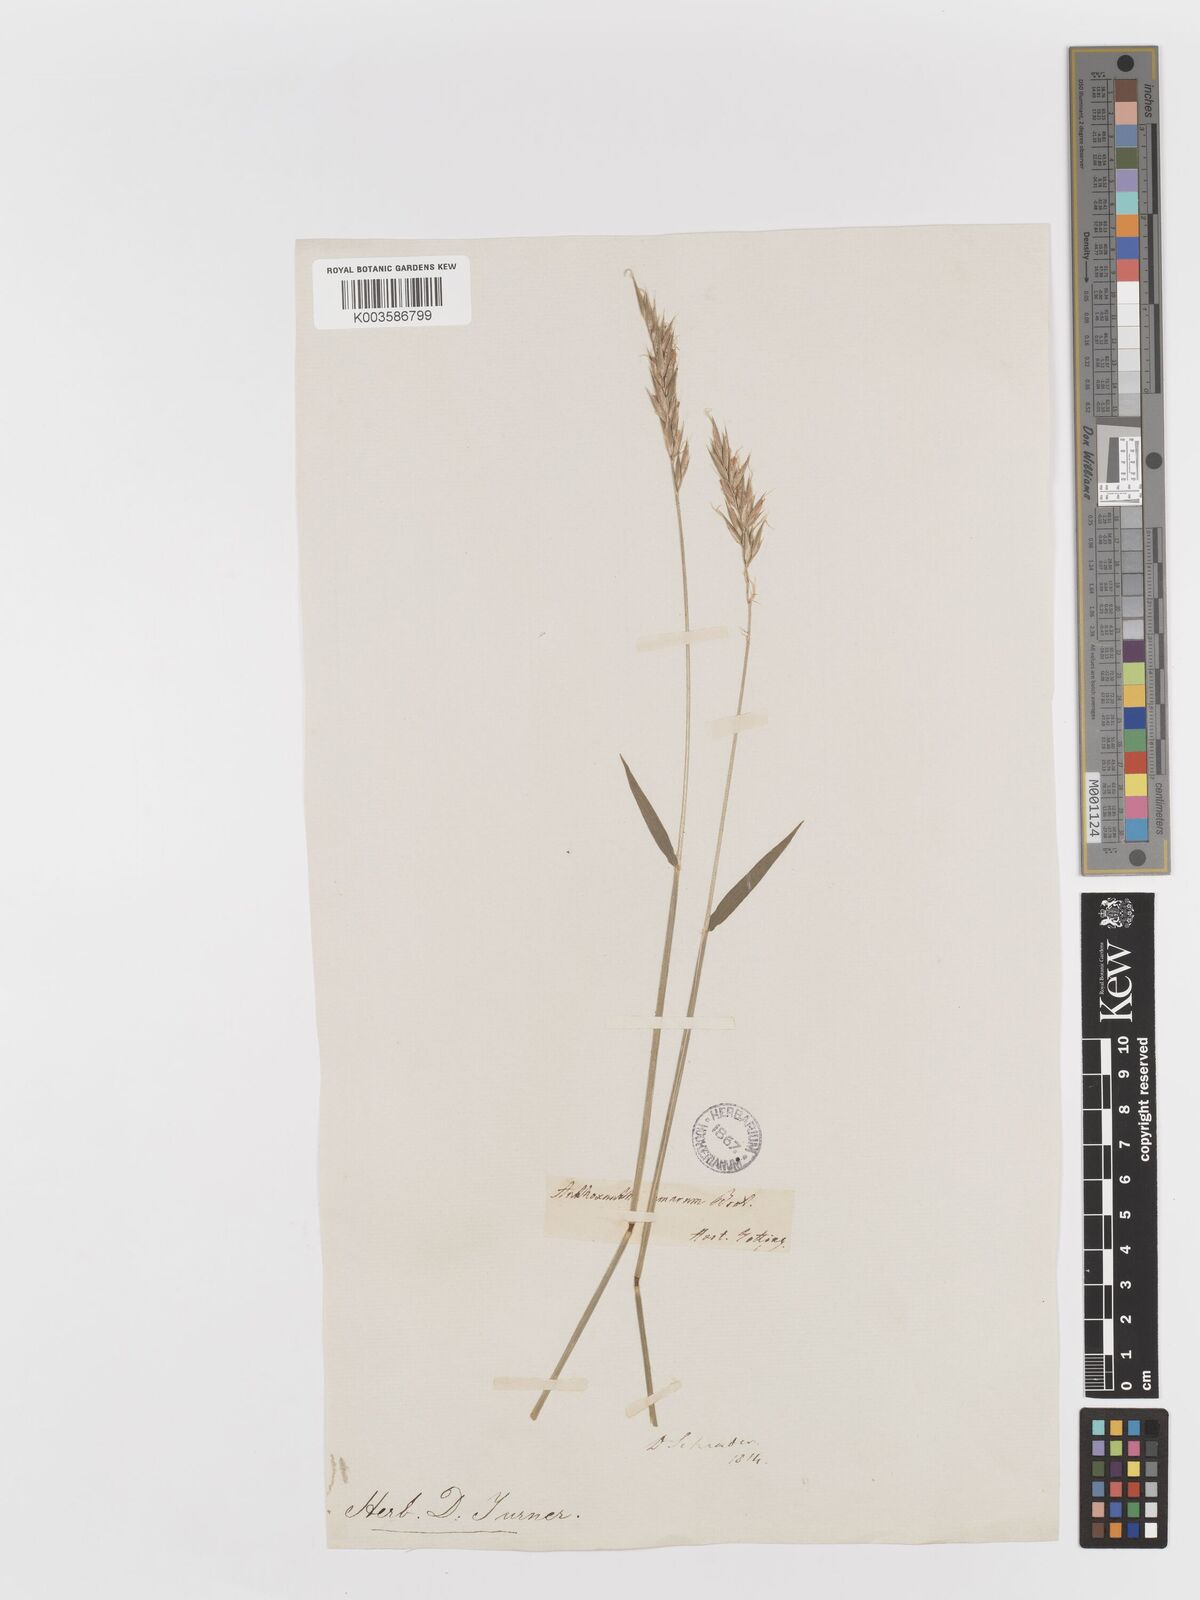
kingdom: Plantae
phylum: Tracheophyta
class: Liliopsida
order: Poales
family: Poaceae
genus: Anthoxanthum
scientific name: Anthoxanthum amarum
